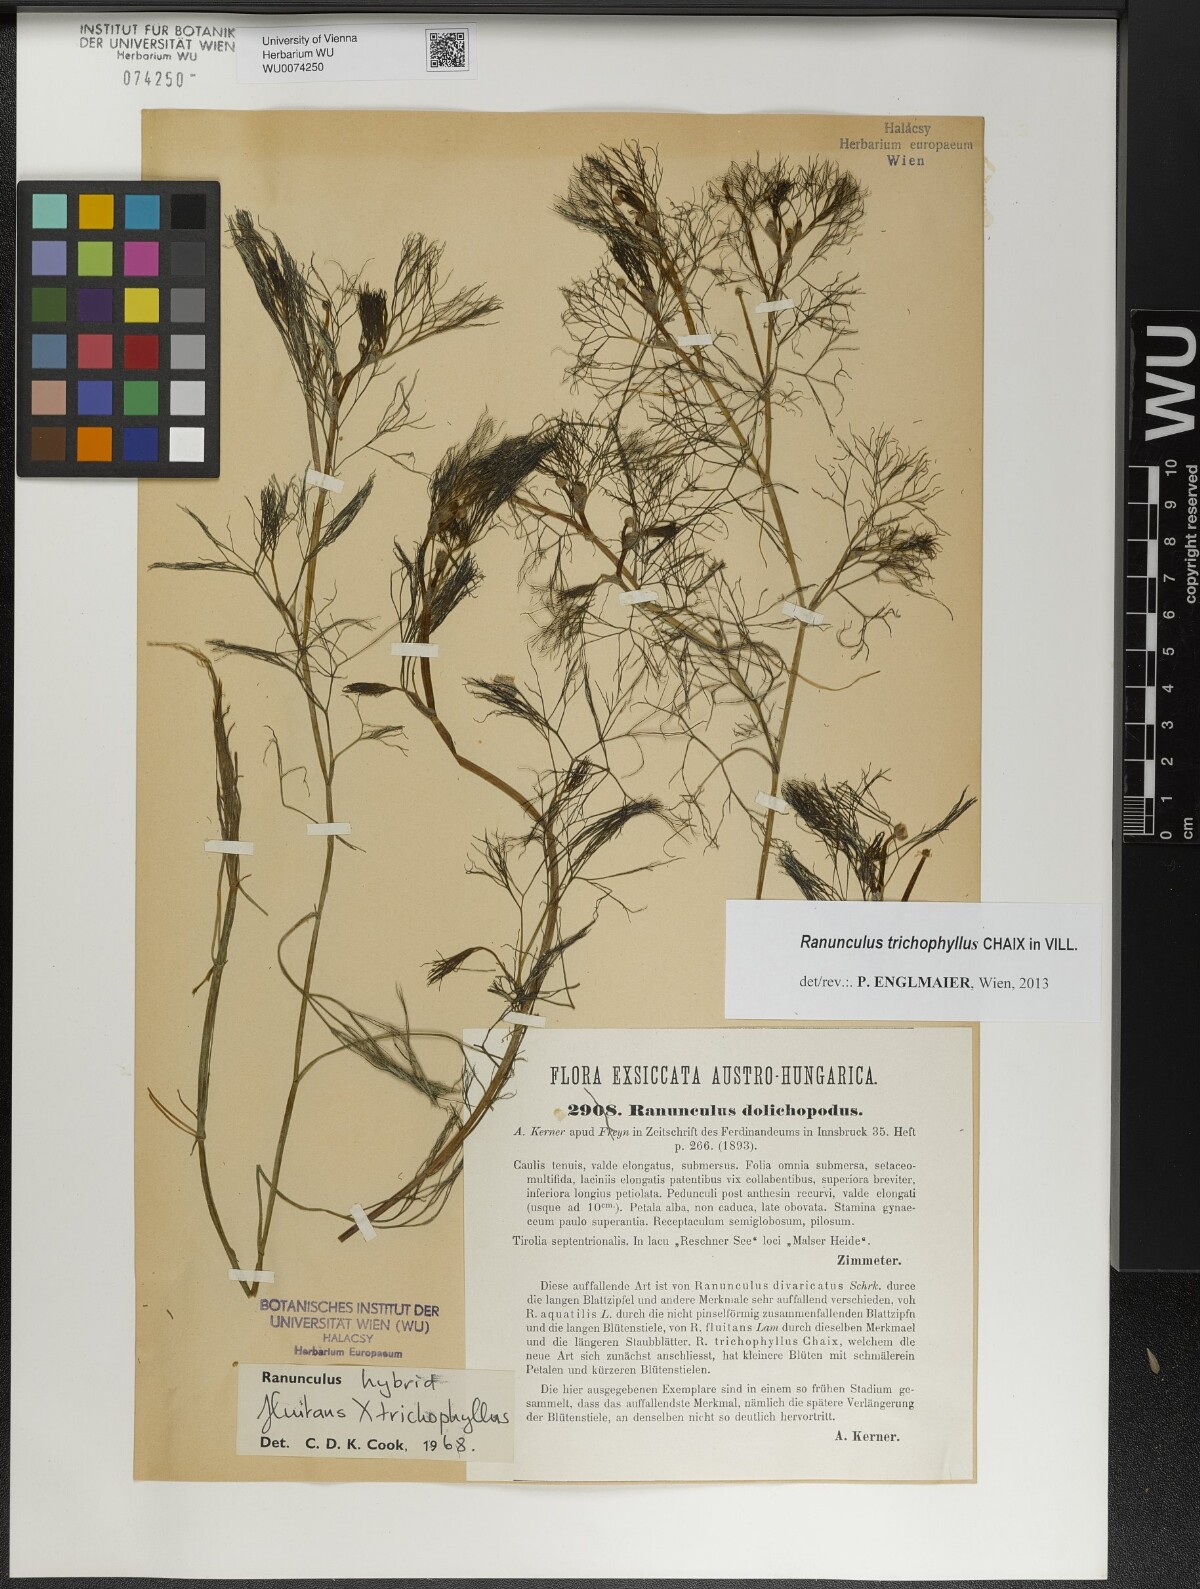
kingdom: Plantae
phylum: Tracheophyta
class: Magnoliopsida
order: Ranunculales
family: Ranunculaceae
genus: Ranunculus
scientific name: Ranunculus trichophyllus
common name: Thread-leaved water-crowfoot
